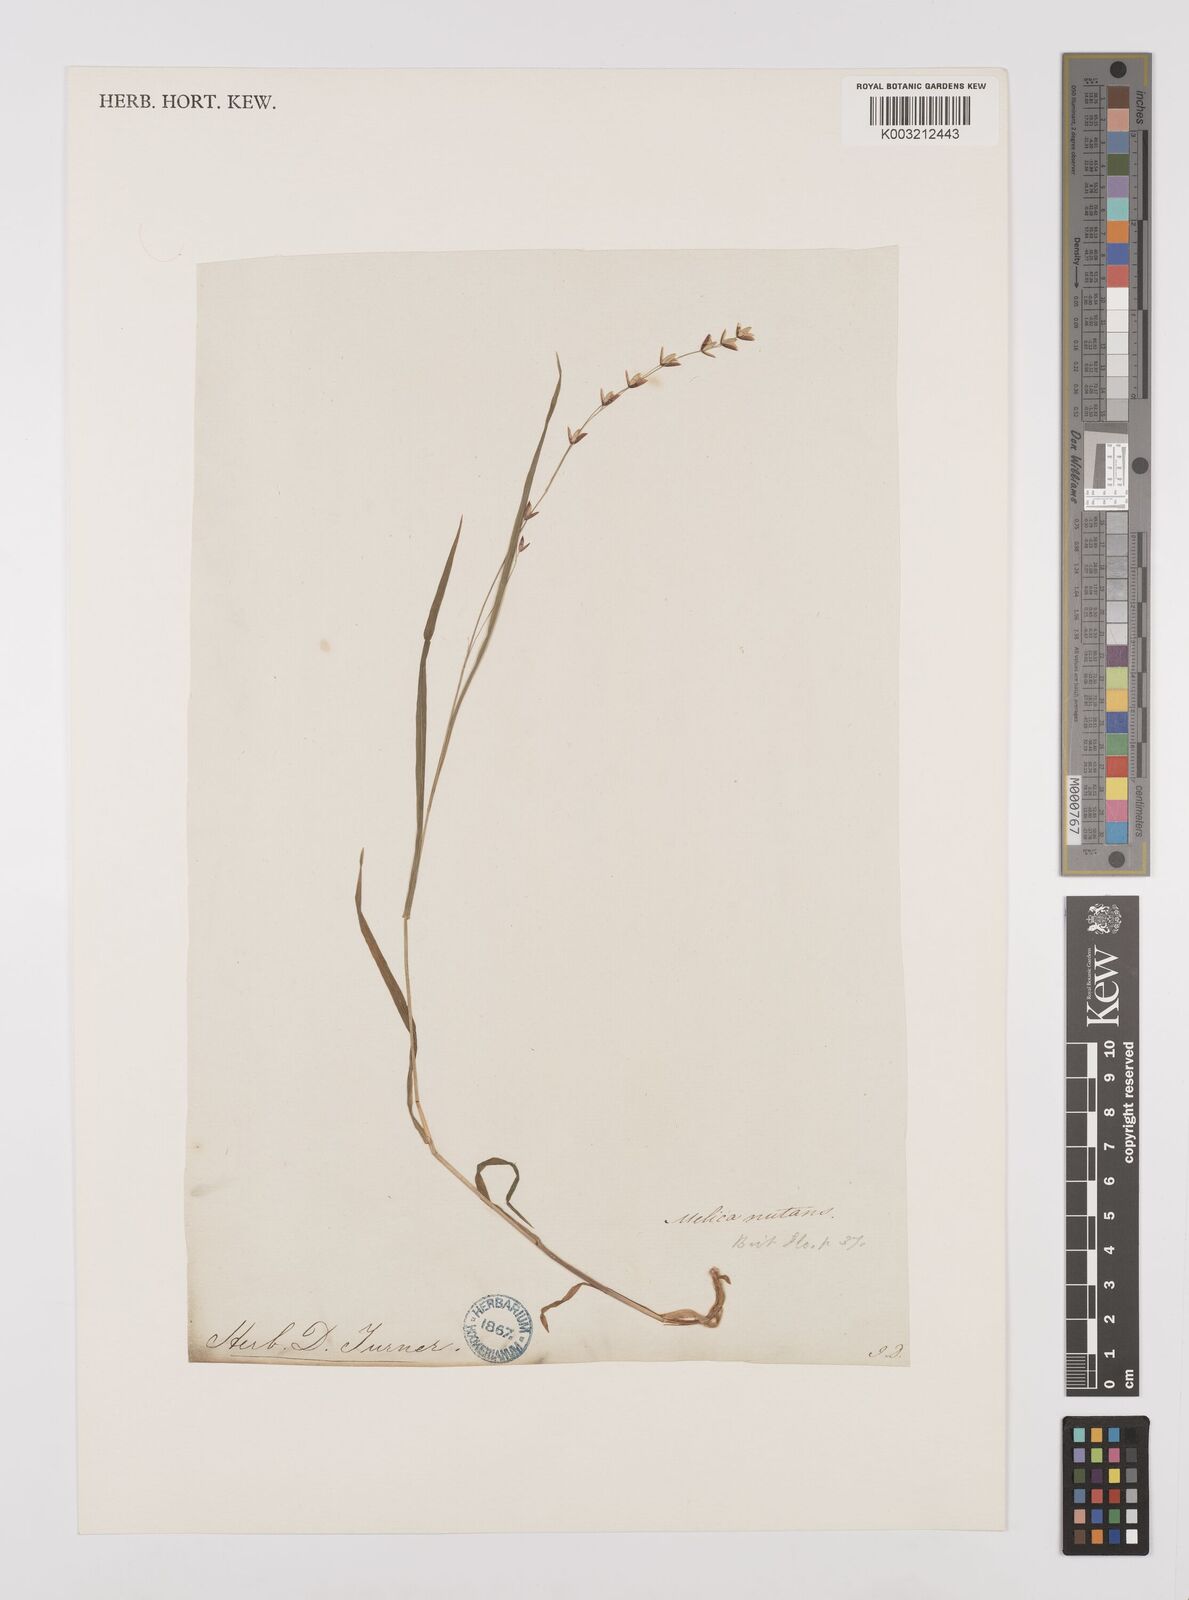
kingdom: Plantae
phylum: Tracheophyta
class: Liliopsida
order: Poales
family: Poaceae
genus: Melica
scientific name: Melica uniflora
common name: Wood melick
